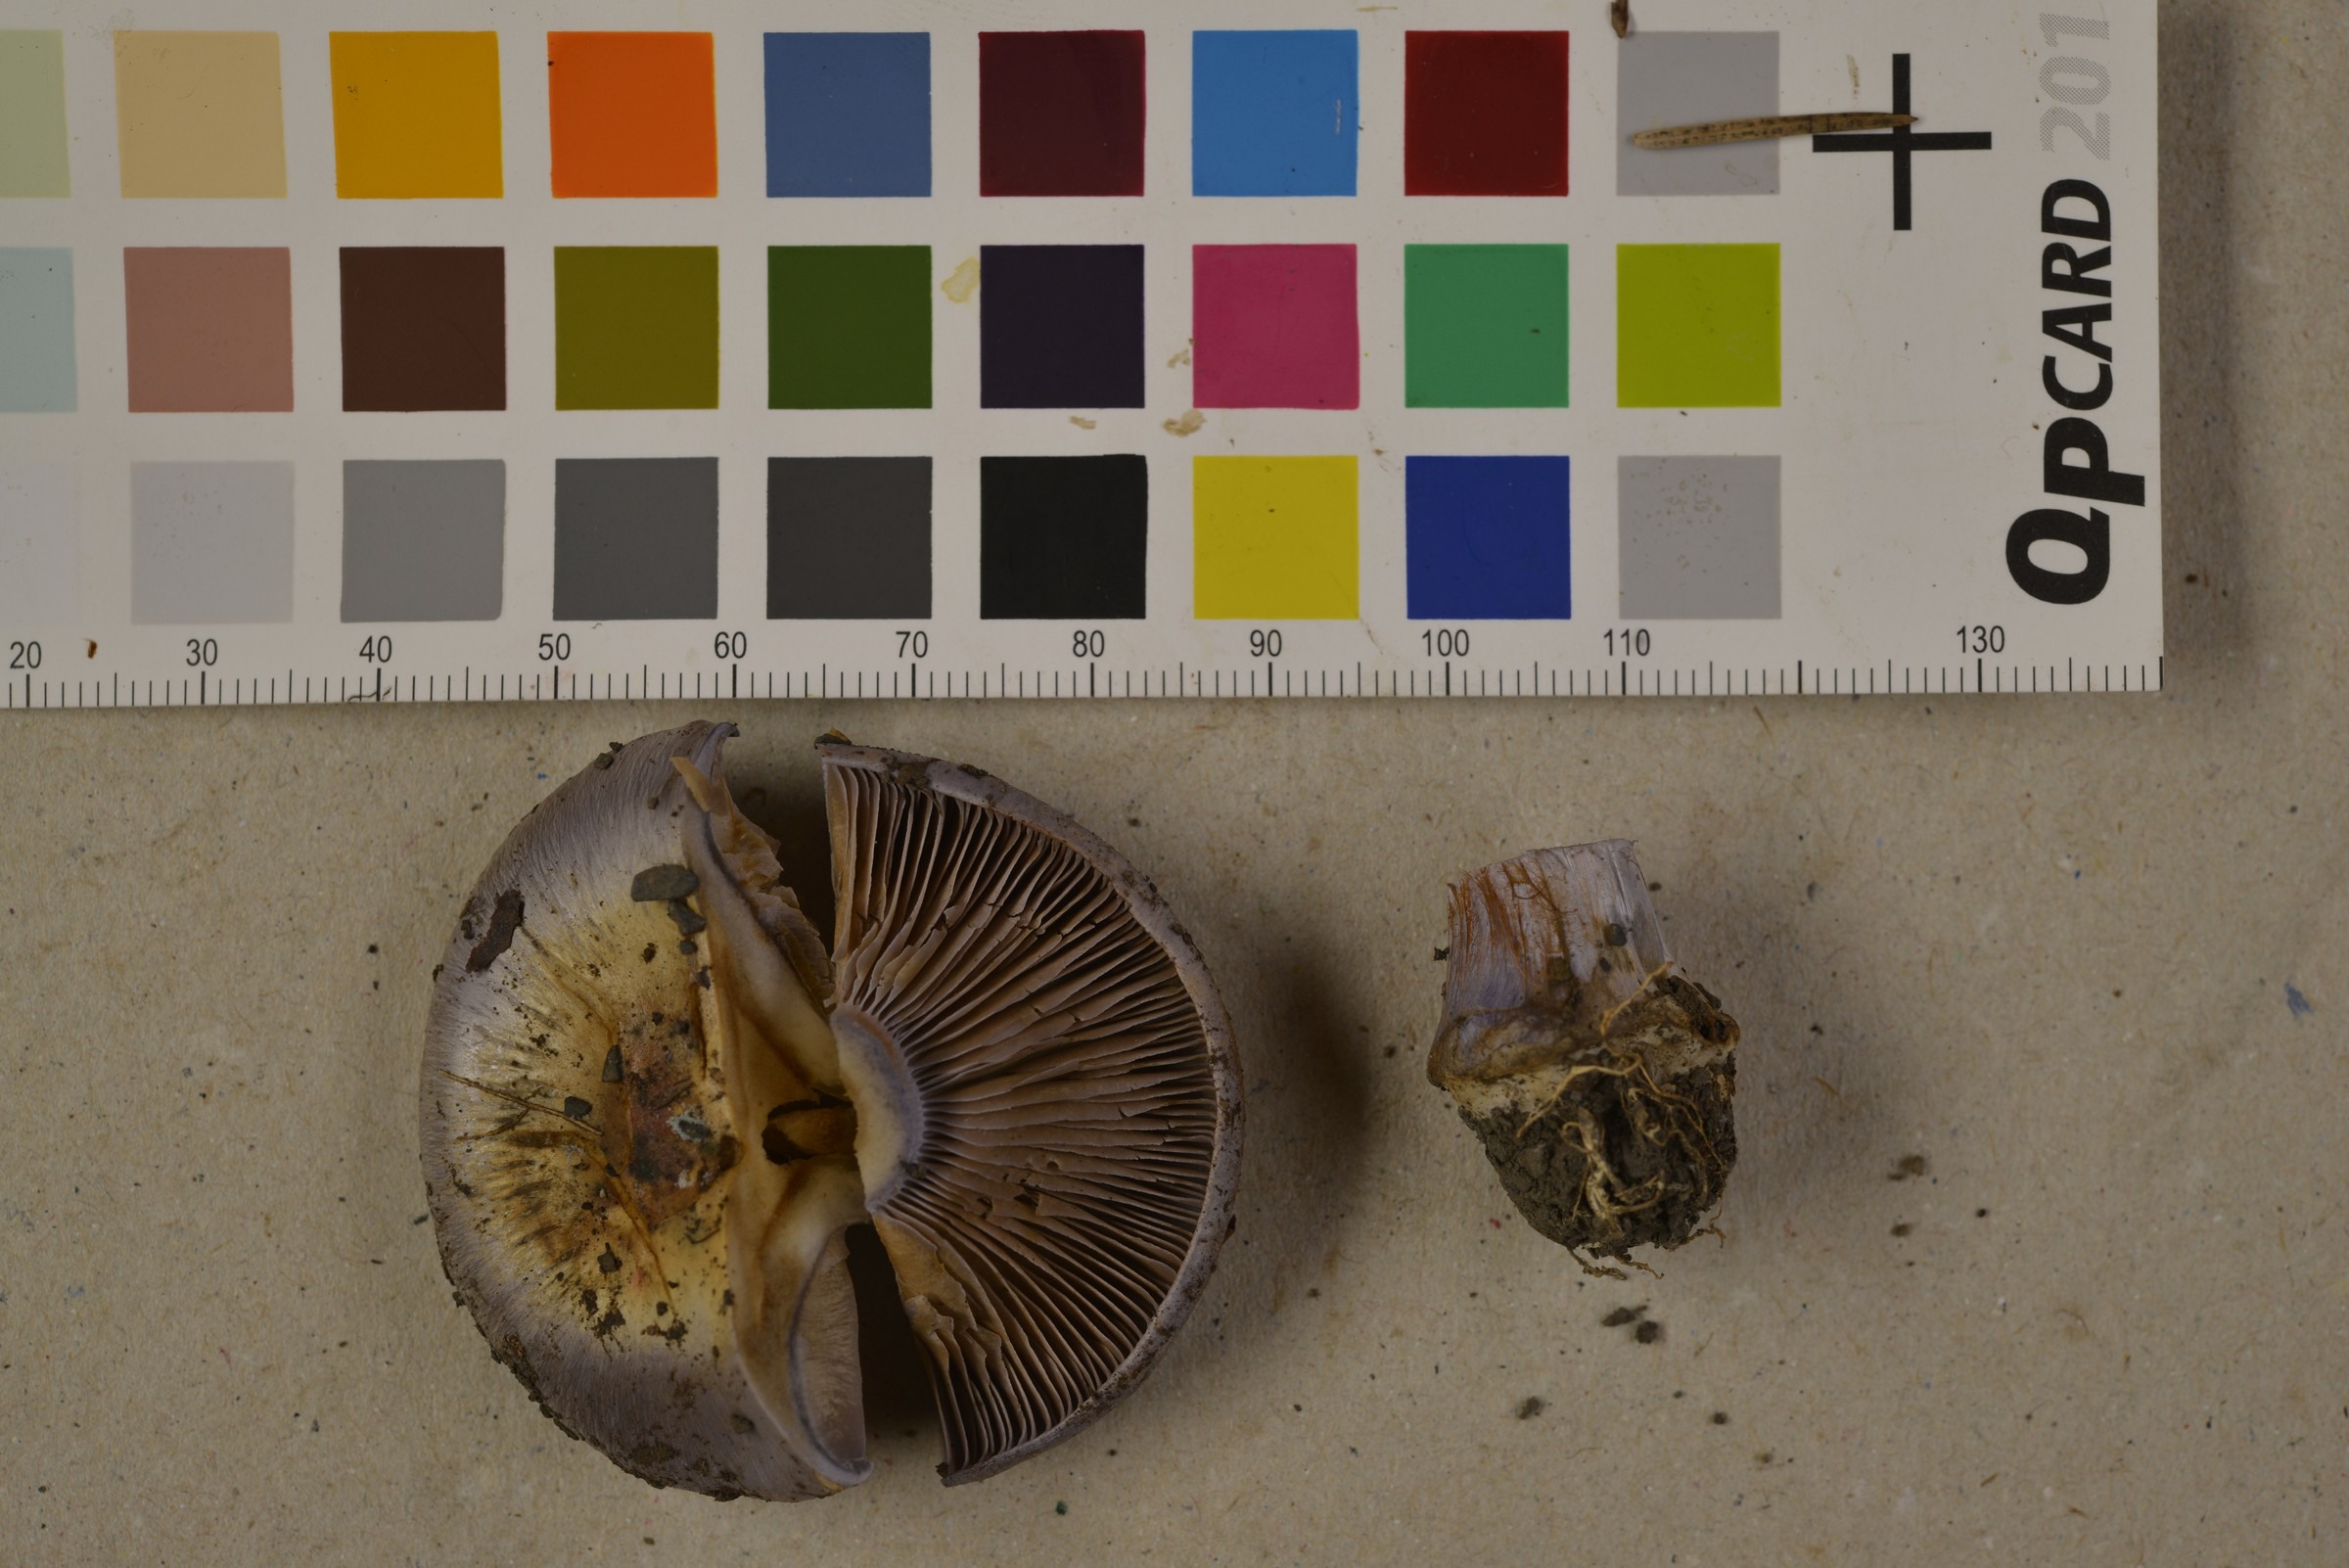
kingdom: Fungi
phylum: Basidiomycota
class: Agaricomycetes
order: Agaricales
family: Cortinariaceae
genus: Phlegmacium
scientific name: Phlegmacium eucaeruleum
